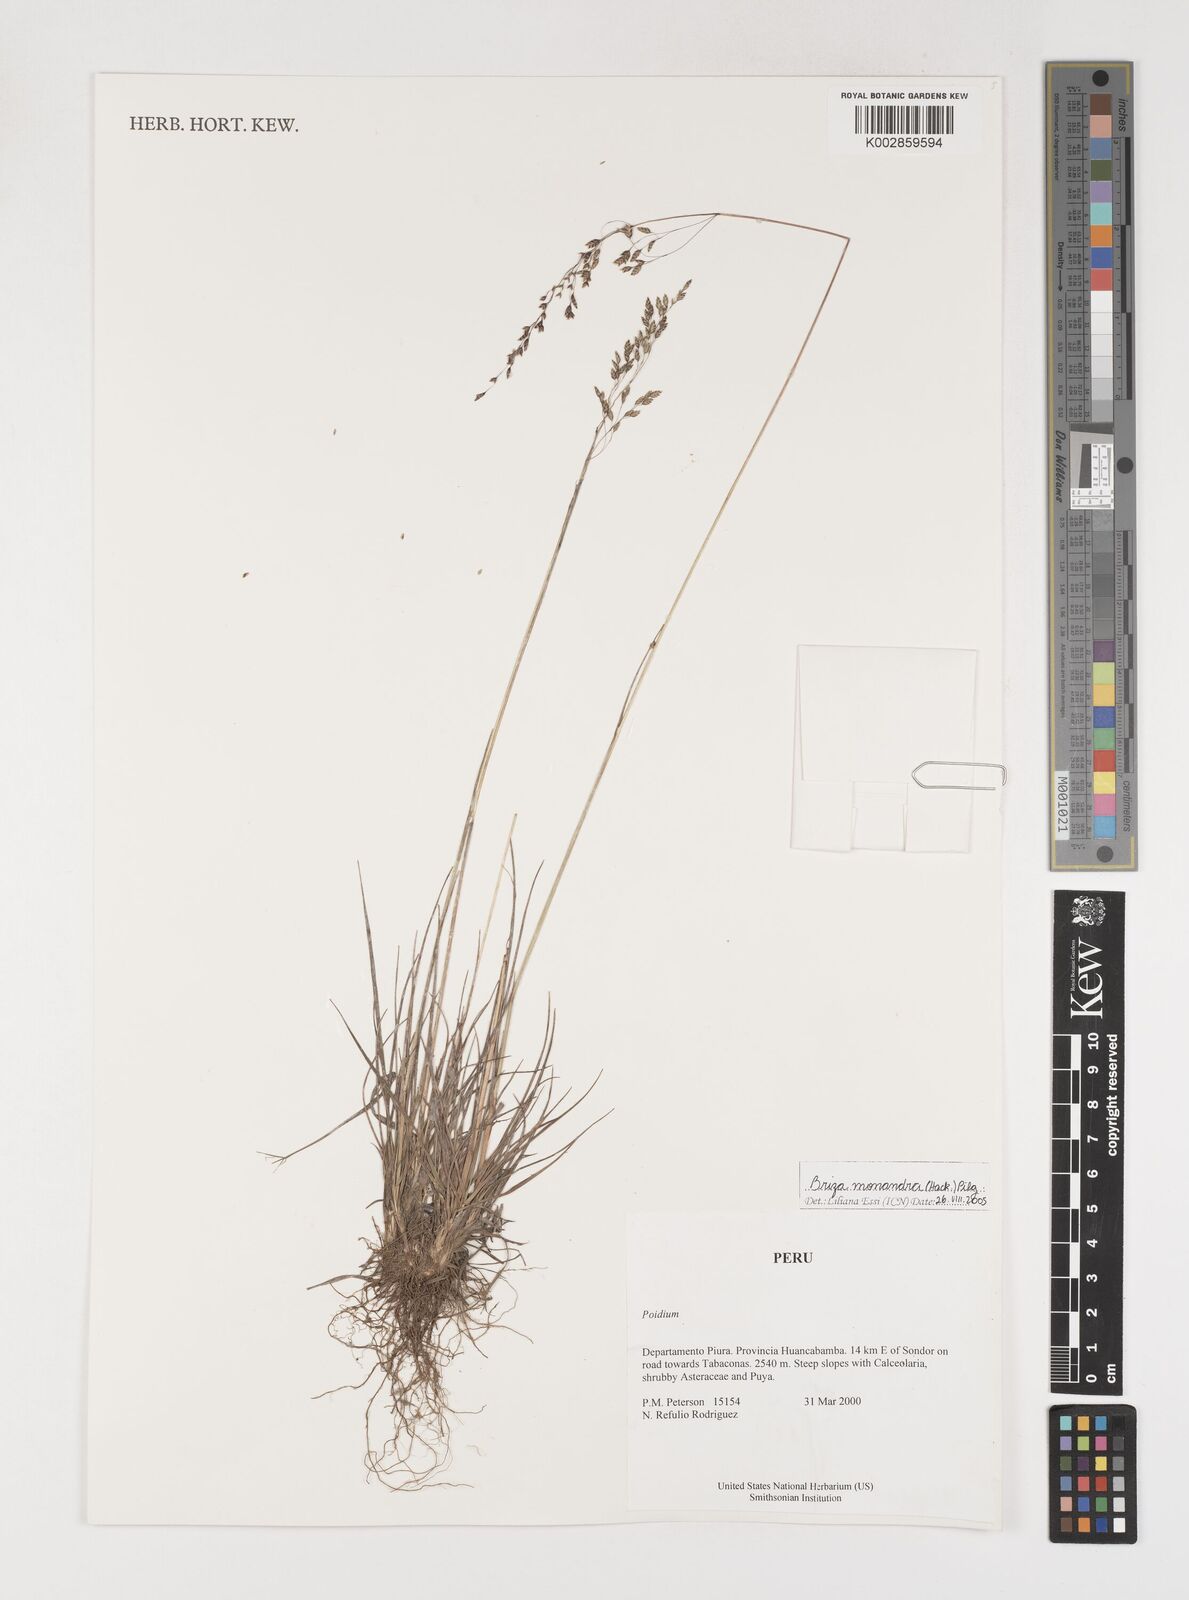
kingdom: Plantae
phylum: Tracheophyta
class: Liliopsida
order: Poales
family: Poaceae
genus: Poidium
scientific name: Poidium monandrum
